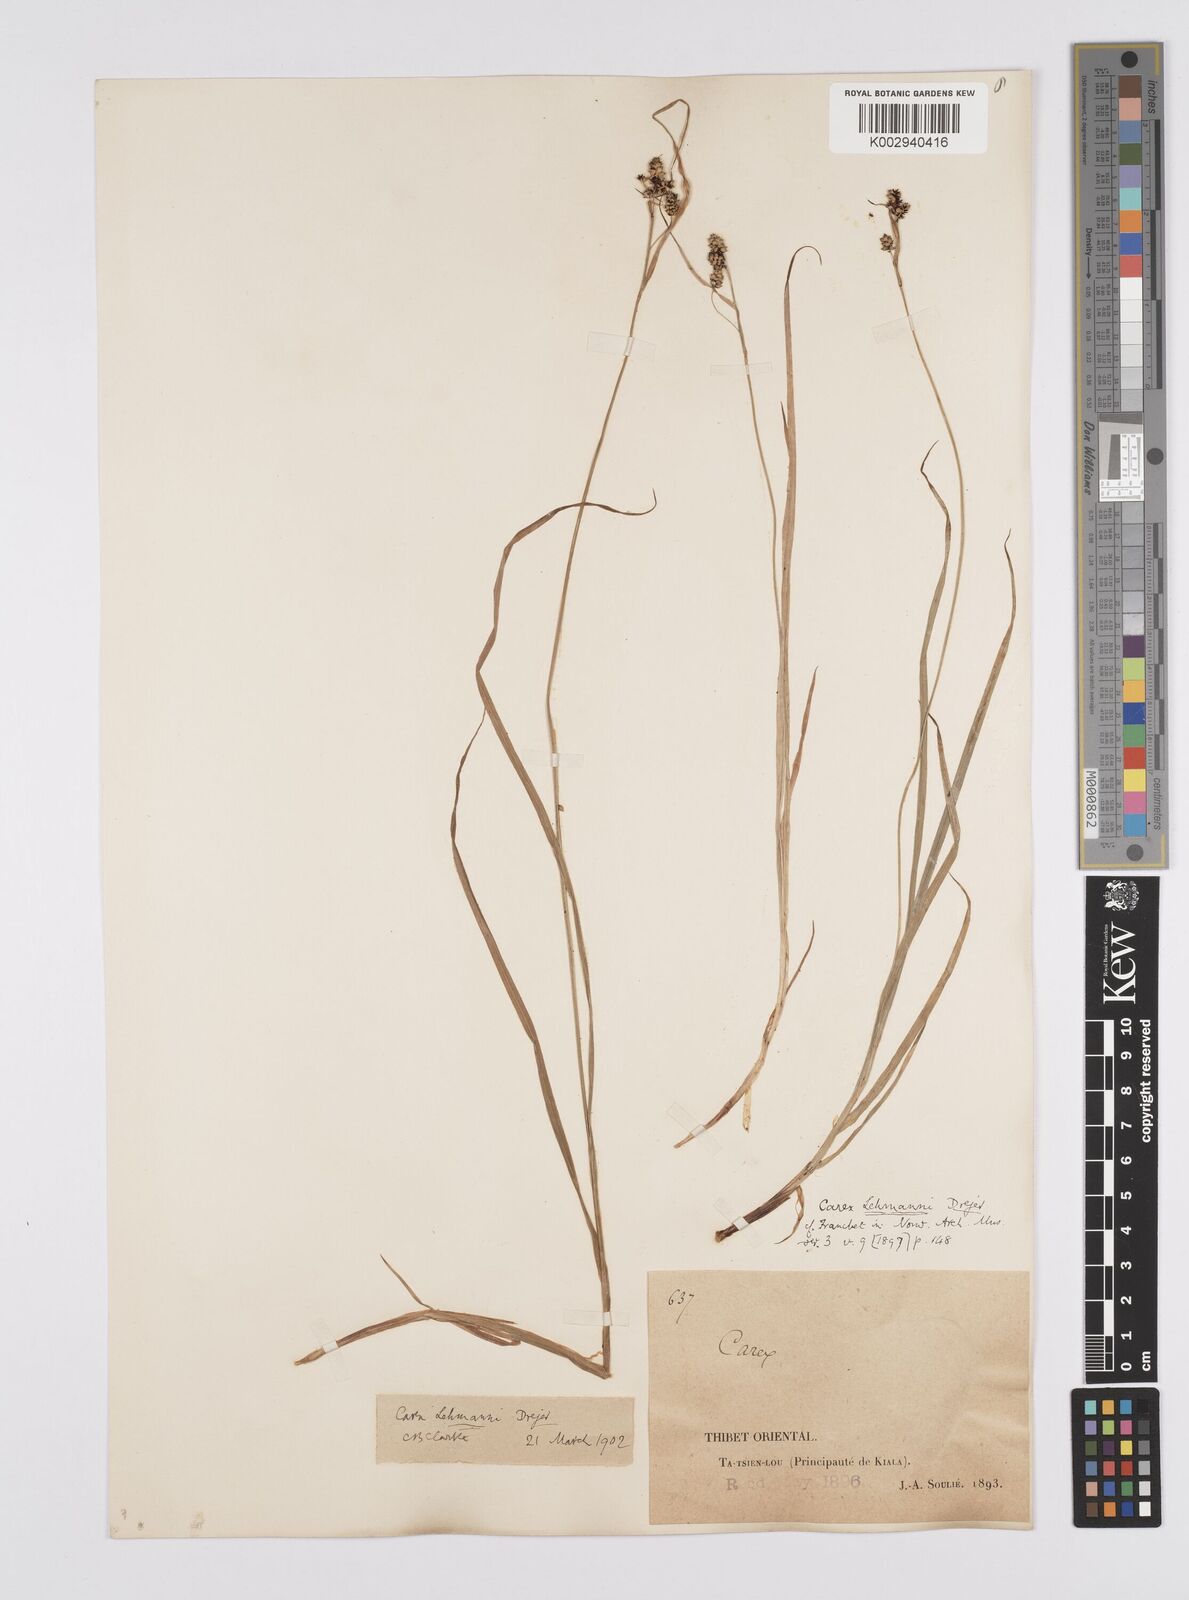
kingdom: Plantae
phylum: Tracheophyta
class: Liliopsida
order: Poales
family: Cyperaceae
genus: Carex
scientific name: Carex lehmannii
